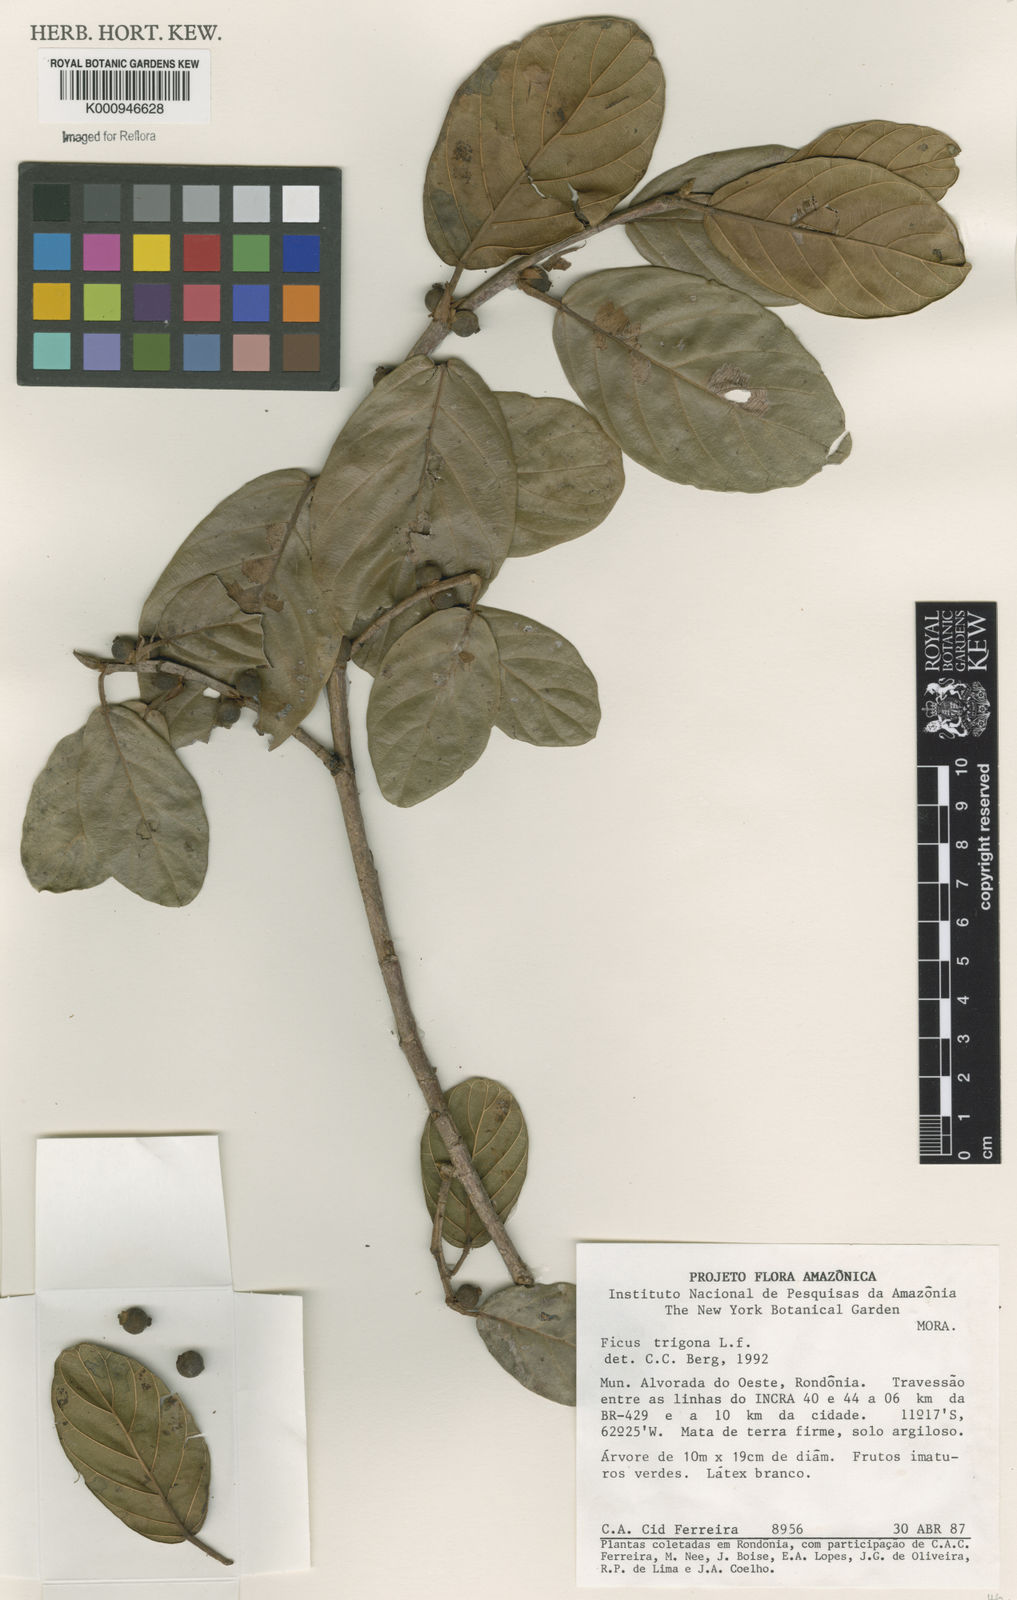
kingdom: Plantae
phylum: Tracheophyta
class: Magnoliopsida
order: Rosales
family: Moraceae
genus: Ficus
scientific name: Ficus trigona
